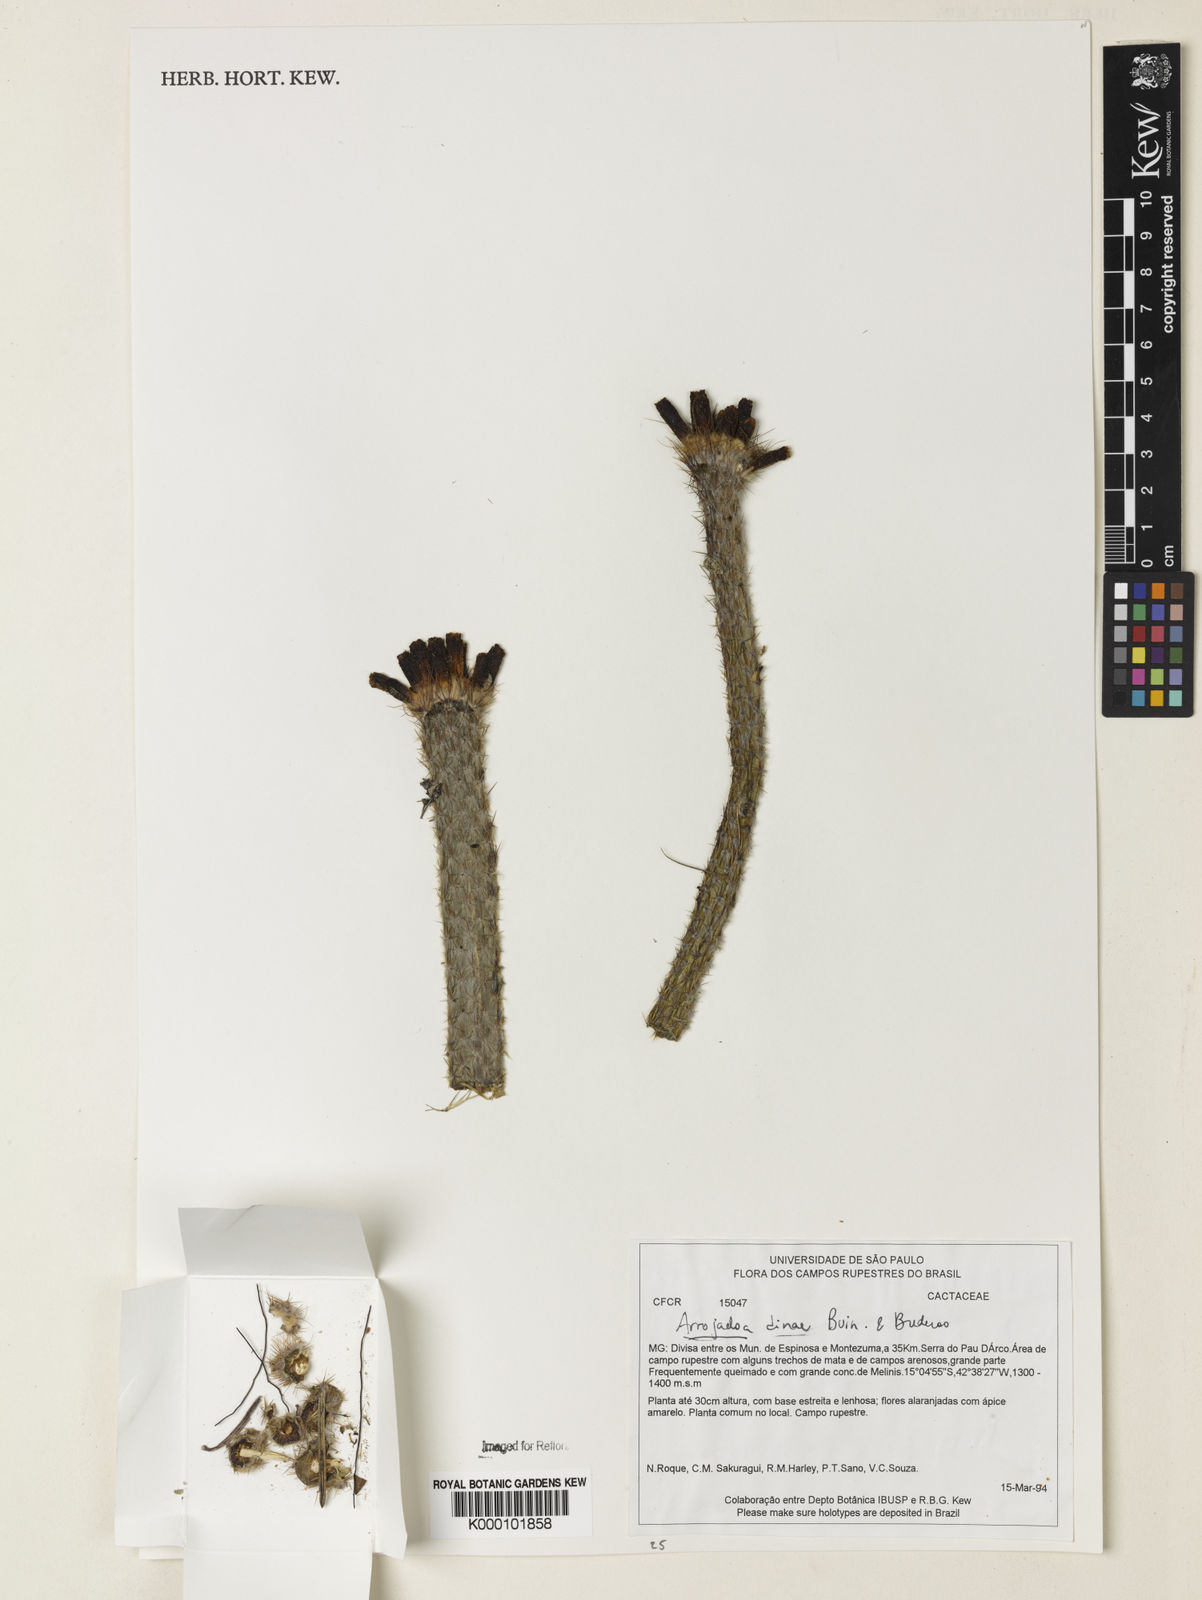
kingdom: Plantae
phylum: Tracheophyta
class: Magnoliopsida
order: Caryophyllales
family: Cactaceae
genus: Arrojadoa
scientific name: Arrojadoa dinae
